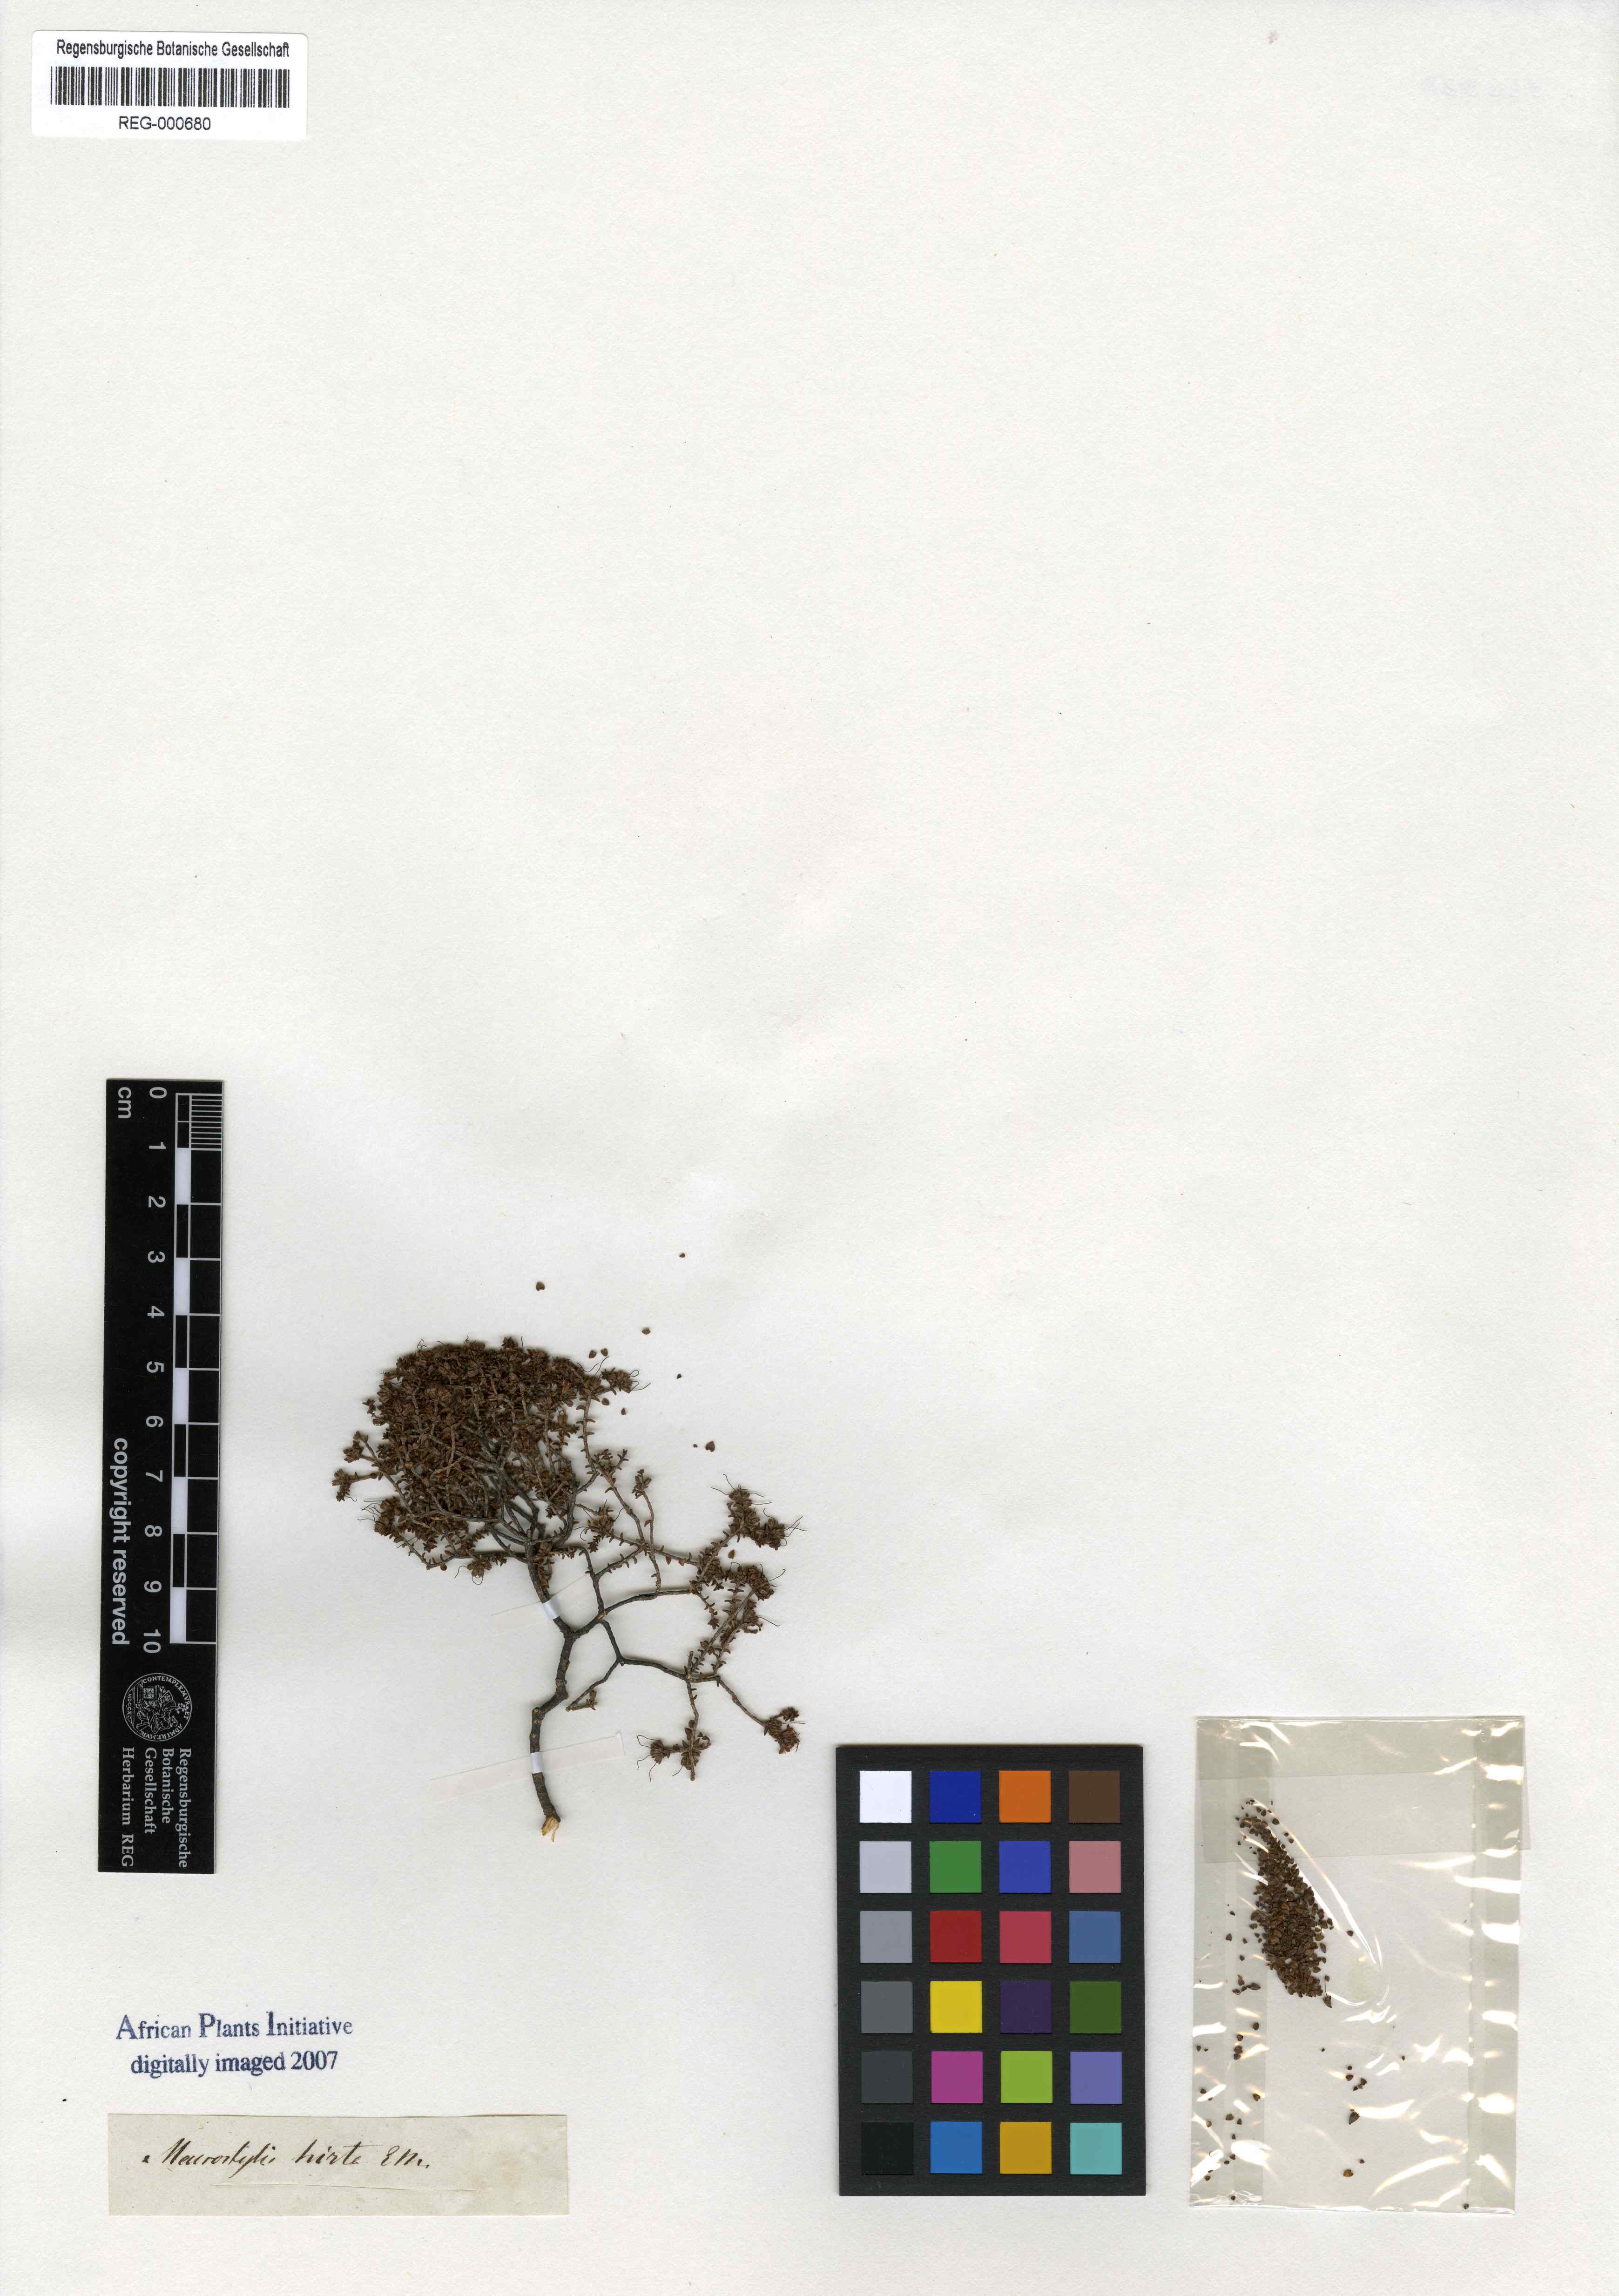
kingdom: Plantae
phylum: Tracheophyta
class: Magnoliopsida
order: Sapindales
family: Rutaceae
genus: Macrostylis
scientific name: Macrostylis hirta
